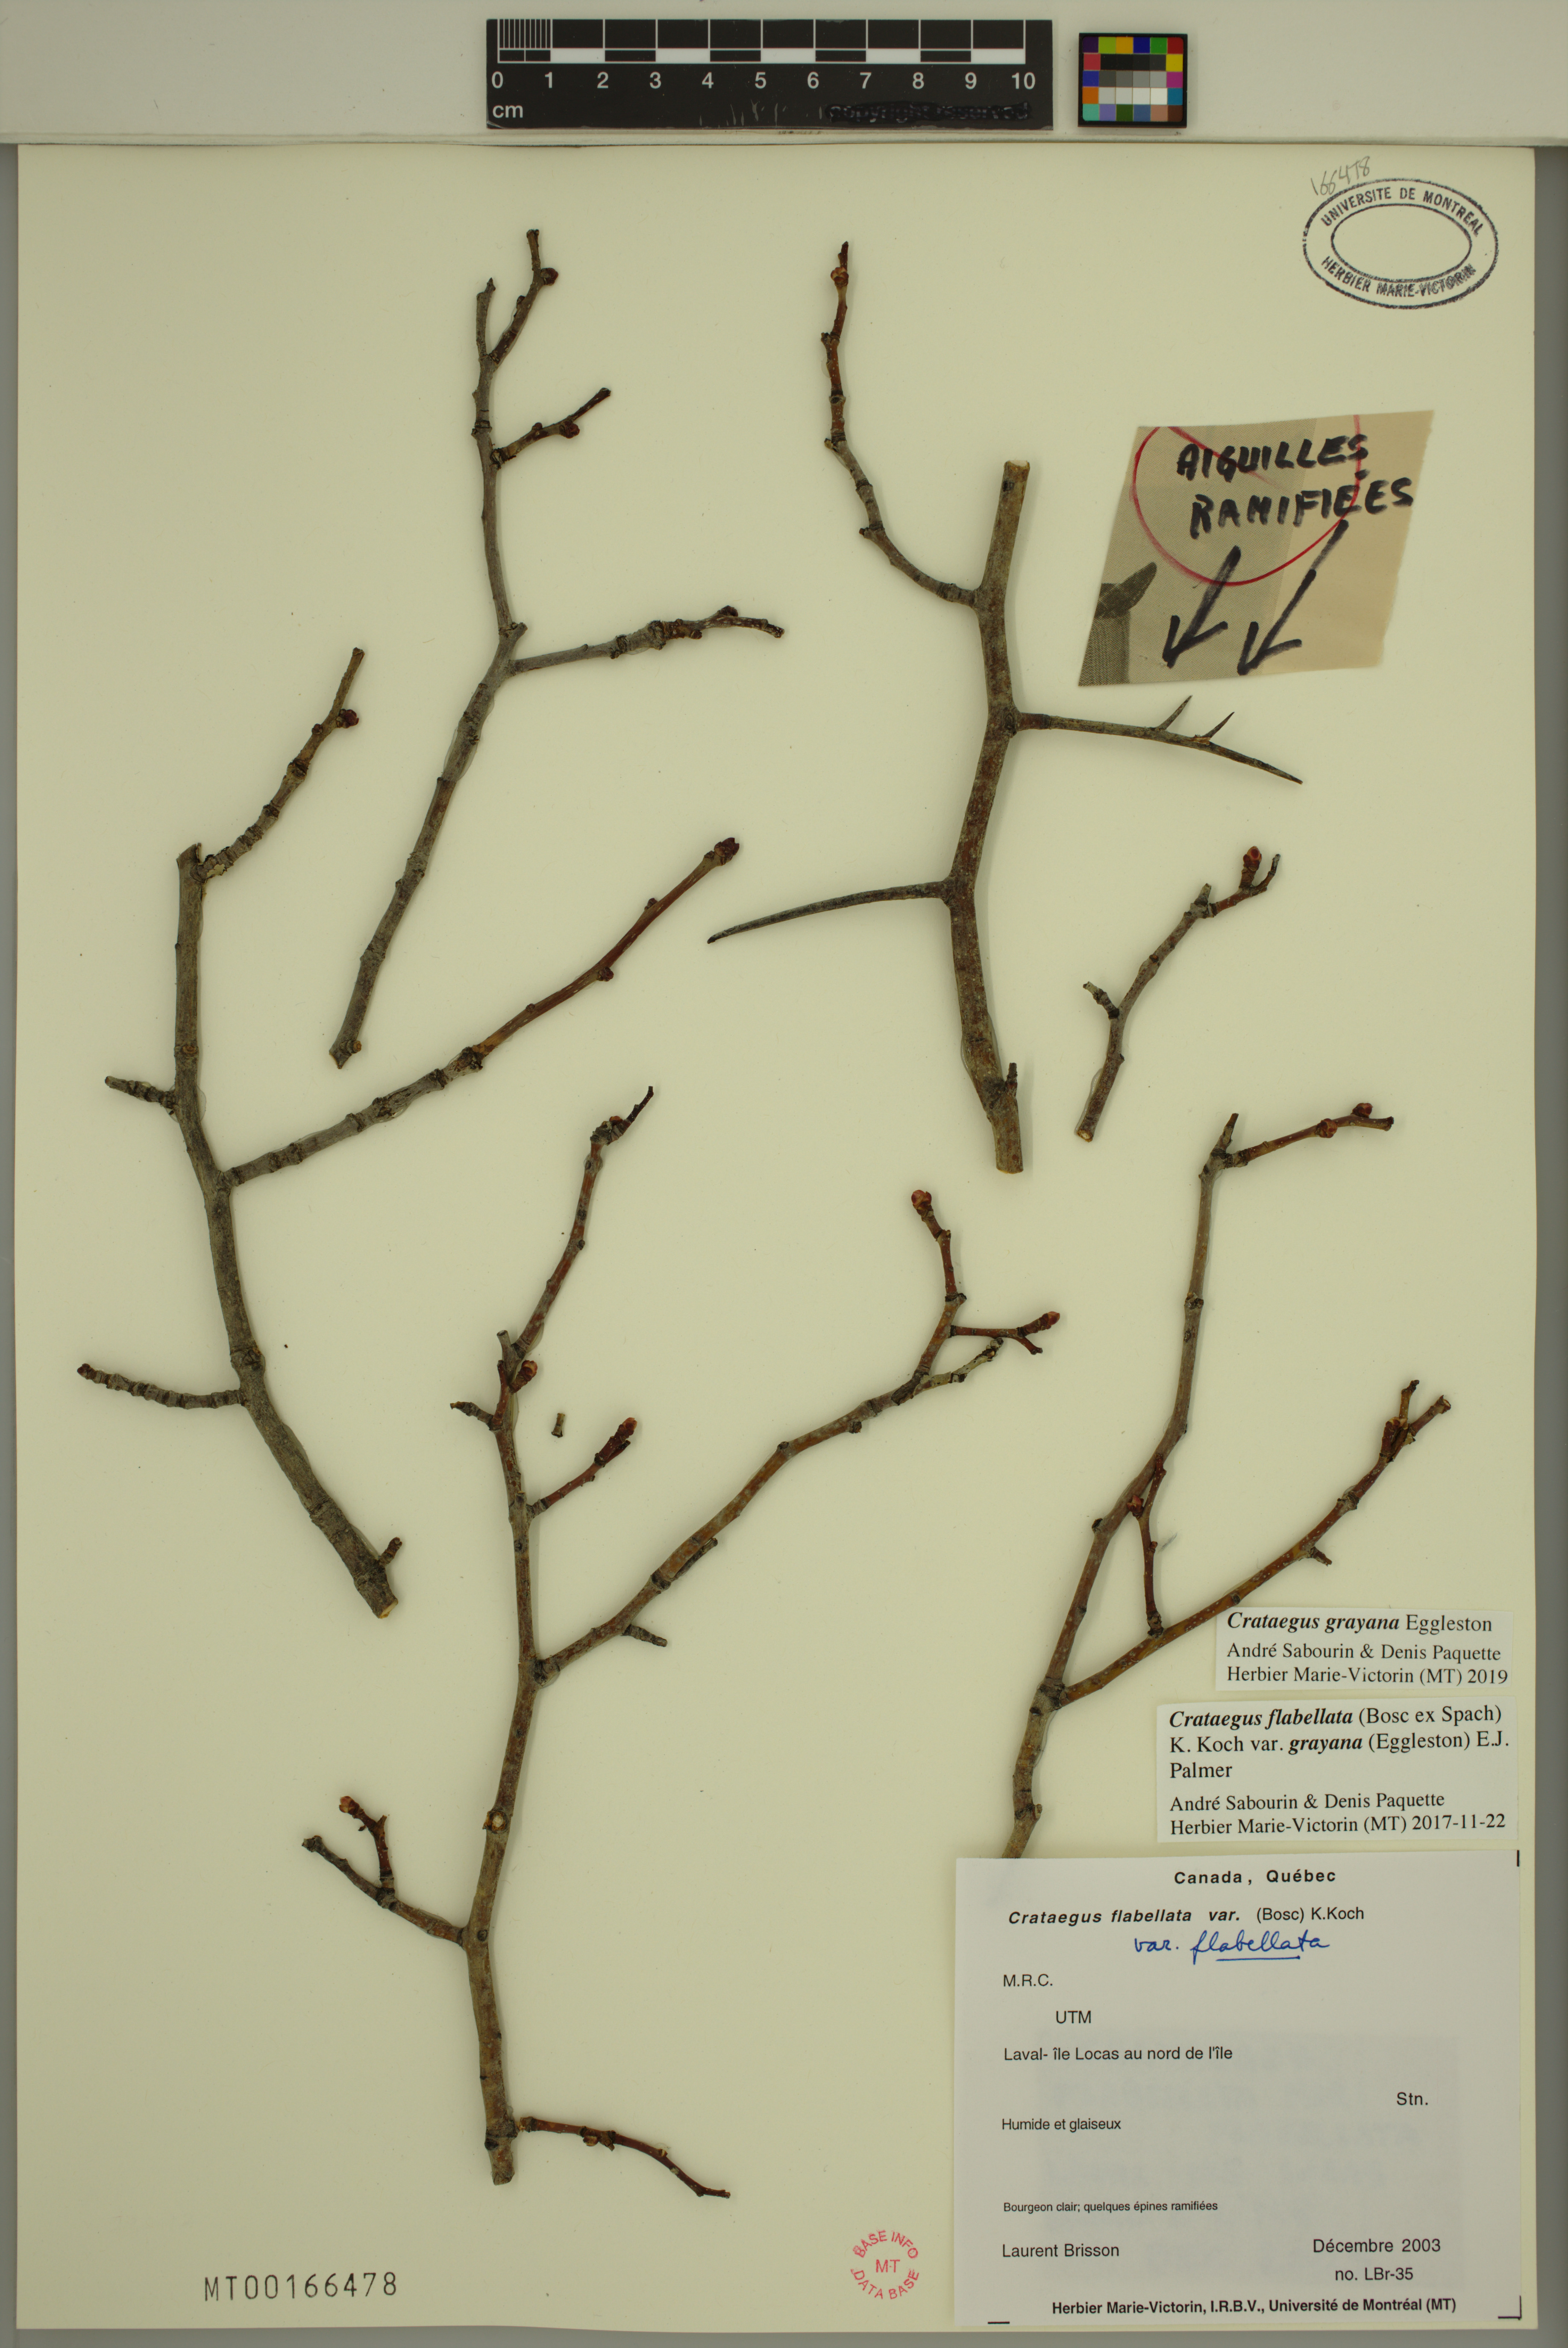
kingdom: Plantae
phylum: Tracheophyta
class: Magnoliopsida
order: Rosales
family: Rosaceae
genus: Crataegus
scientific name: Crataegus schuettei
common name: Schuette's hawthorn
